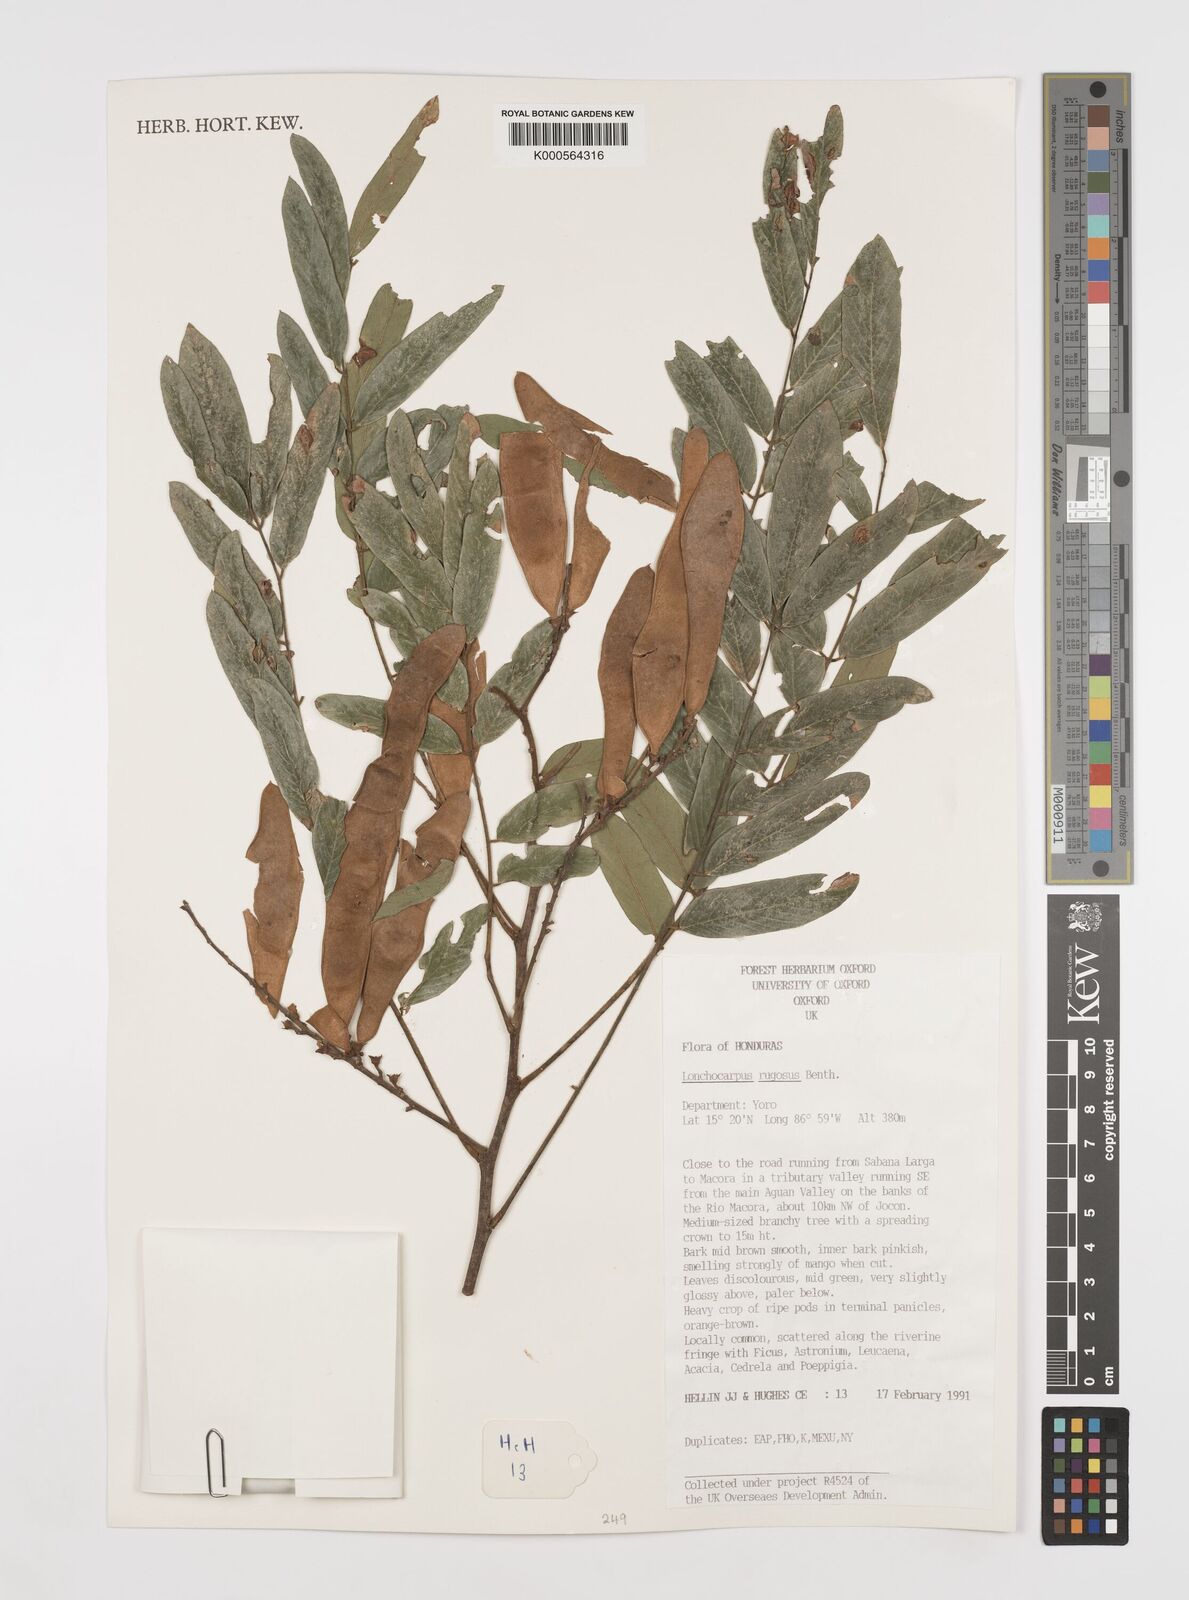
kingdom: Plantae
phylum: Tracheophyta
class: Magnoliopsida
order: Fabales
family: Fabaceae
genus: Lonchocarpus
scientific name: Lonchocarpus rugosus
